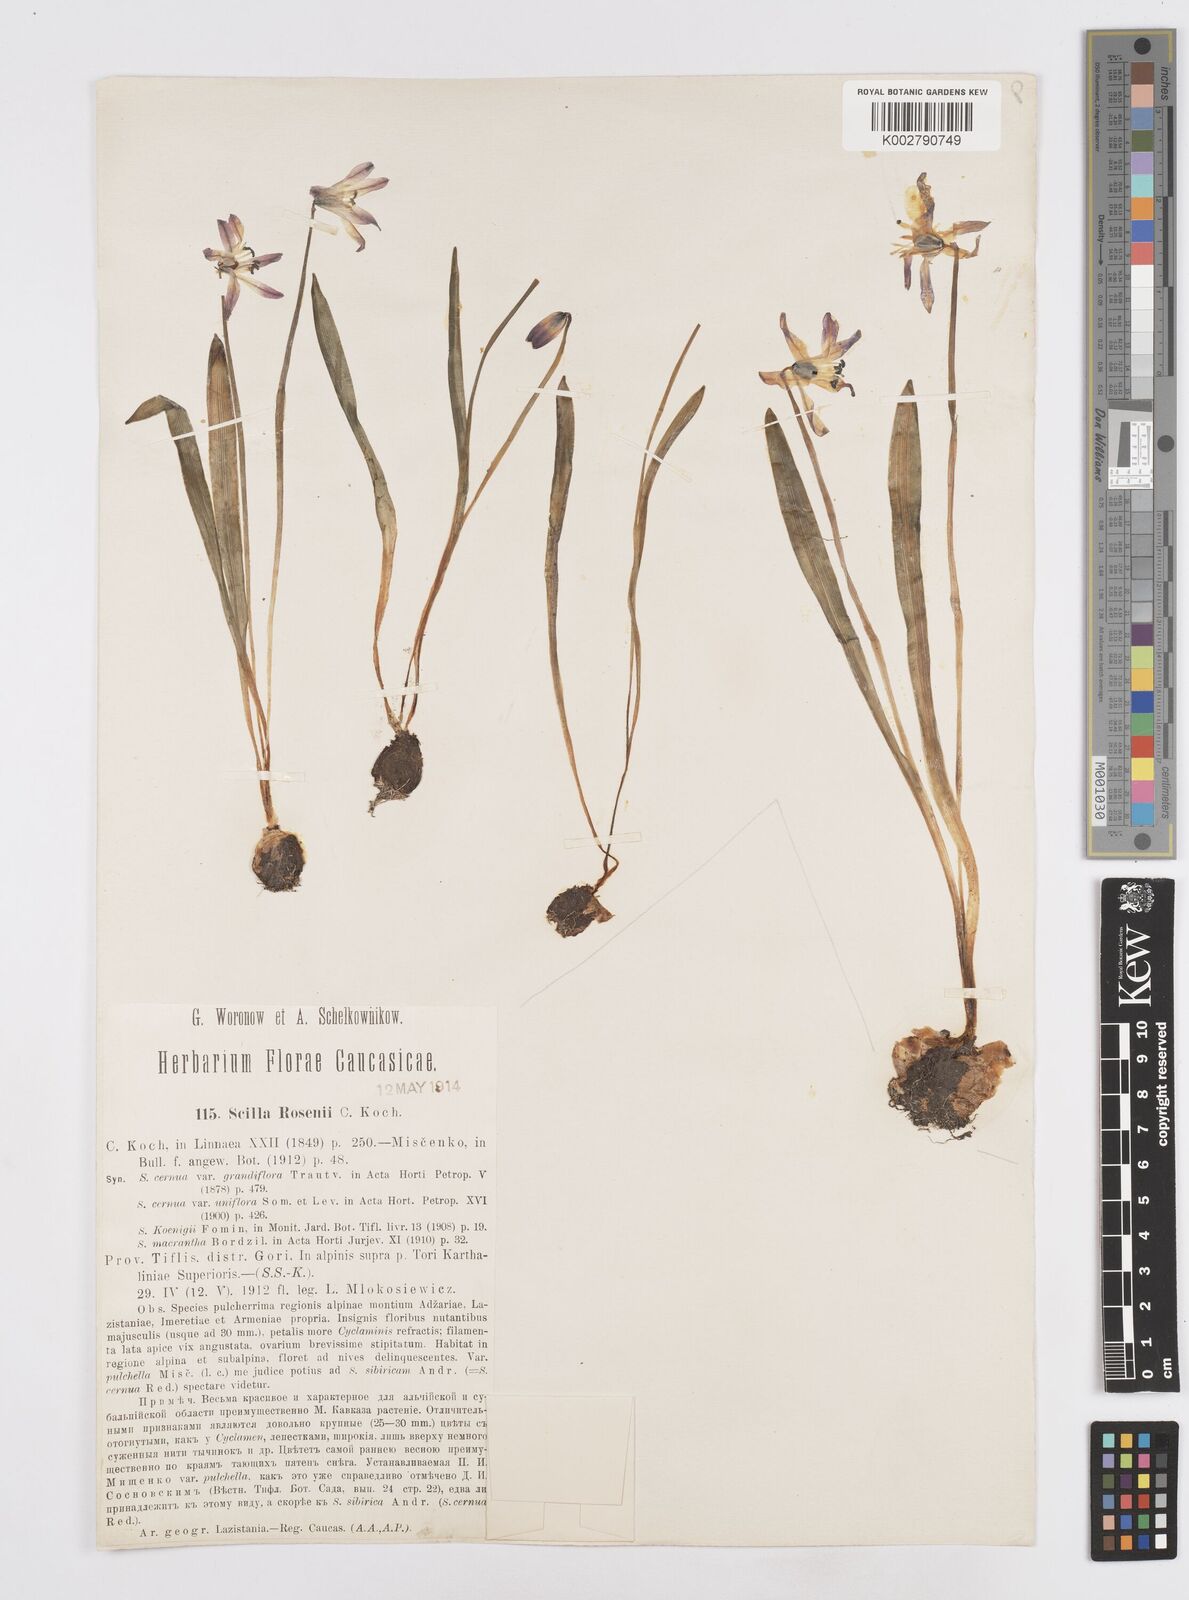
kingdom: Plantae
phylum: Tracheophyta
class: Liliopsida
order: Asparagales
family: Asparagaceae
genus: Scilla
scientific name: Scilla rosenii
